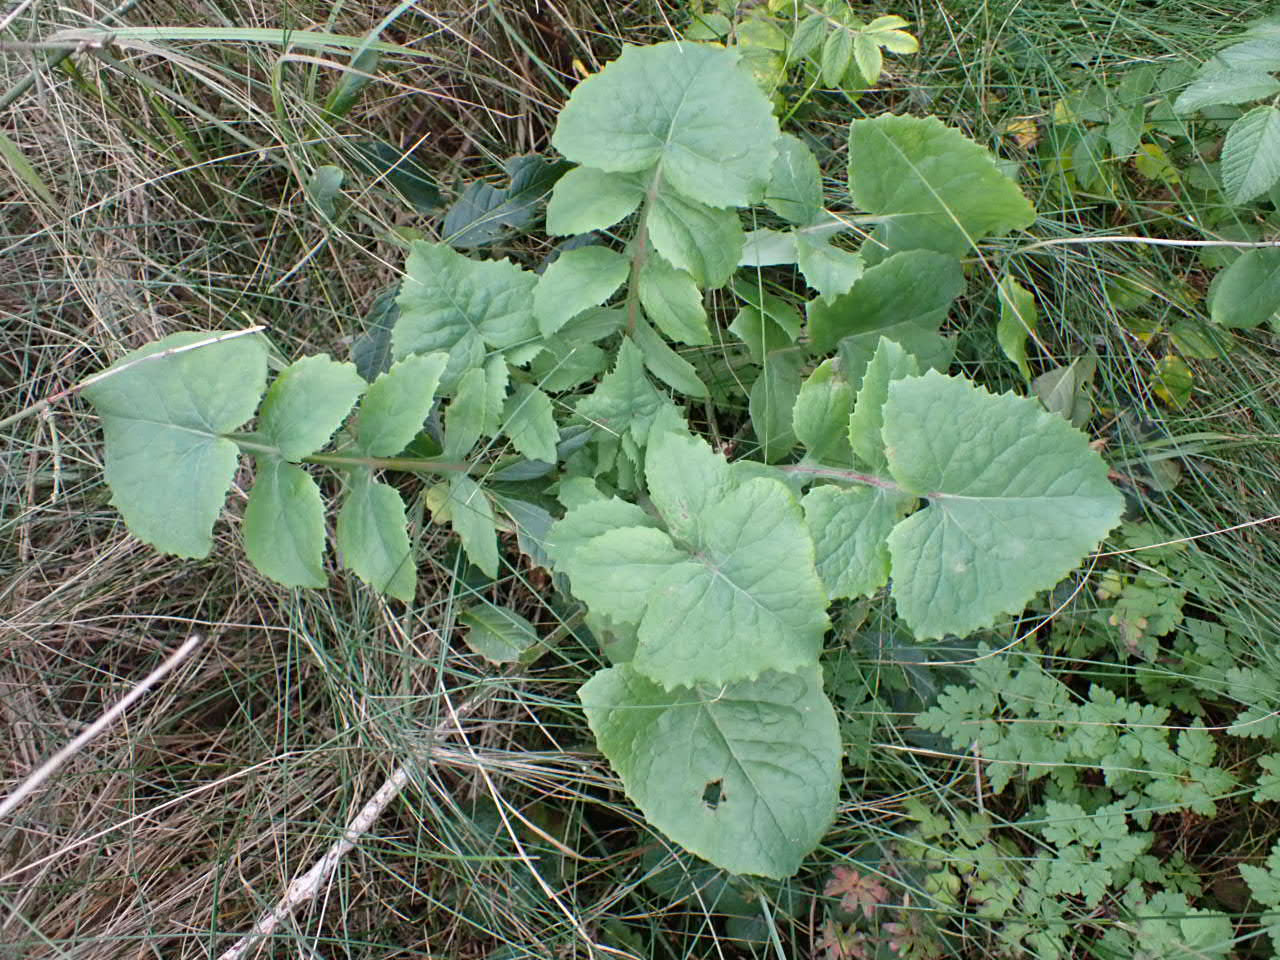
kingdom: Plantae
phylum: Tracheophyta
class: Magnoliopsida
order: Asterales
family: Asteraceae
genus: Sonchus
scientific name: Sonchus oleraceus
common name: Almindelig svinemælk
